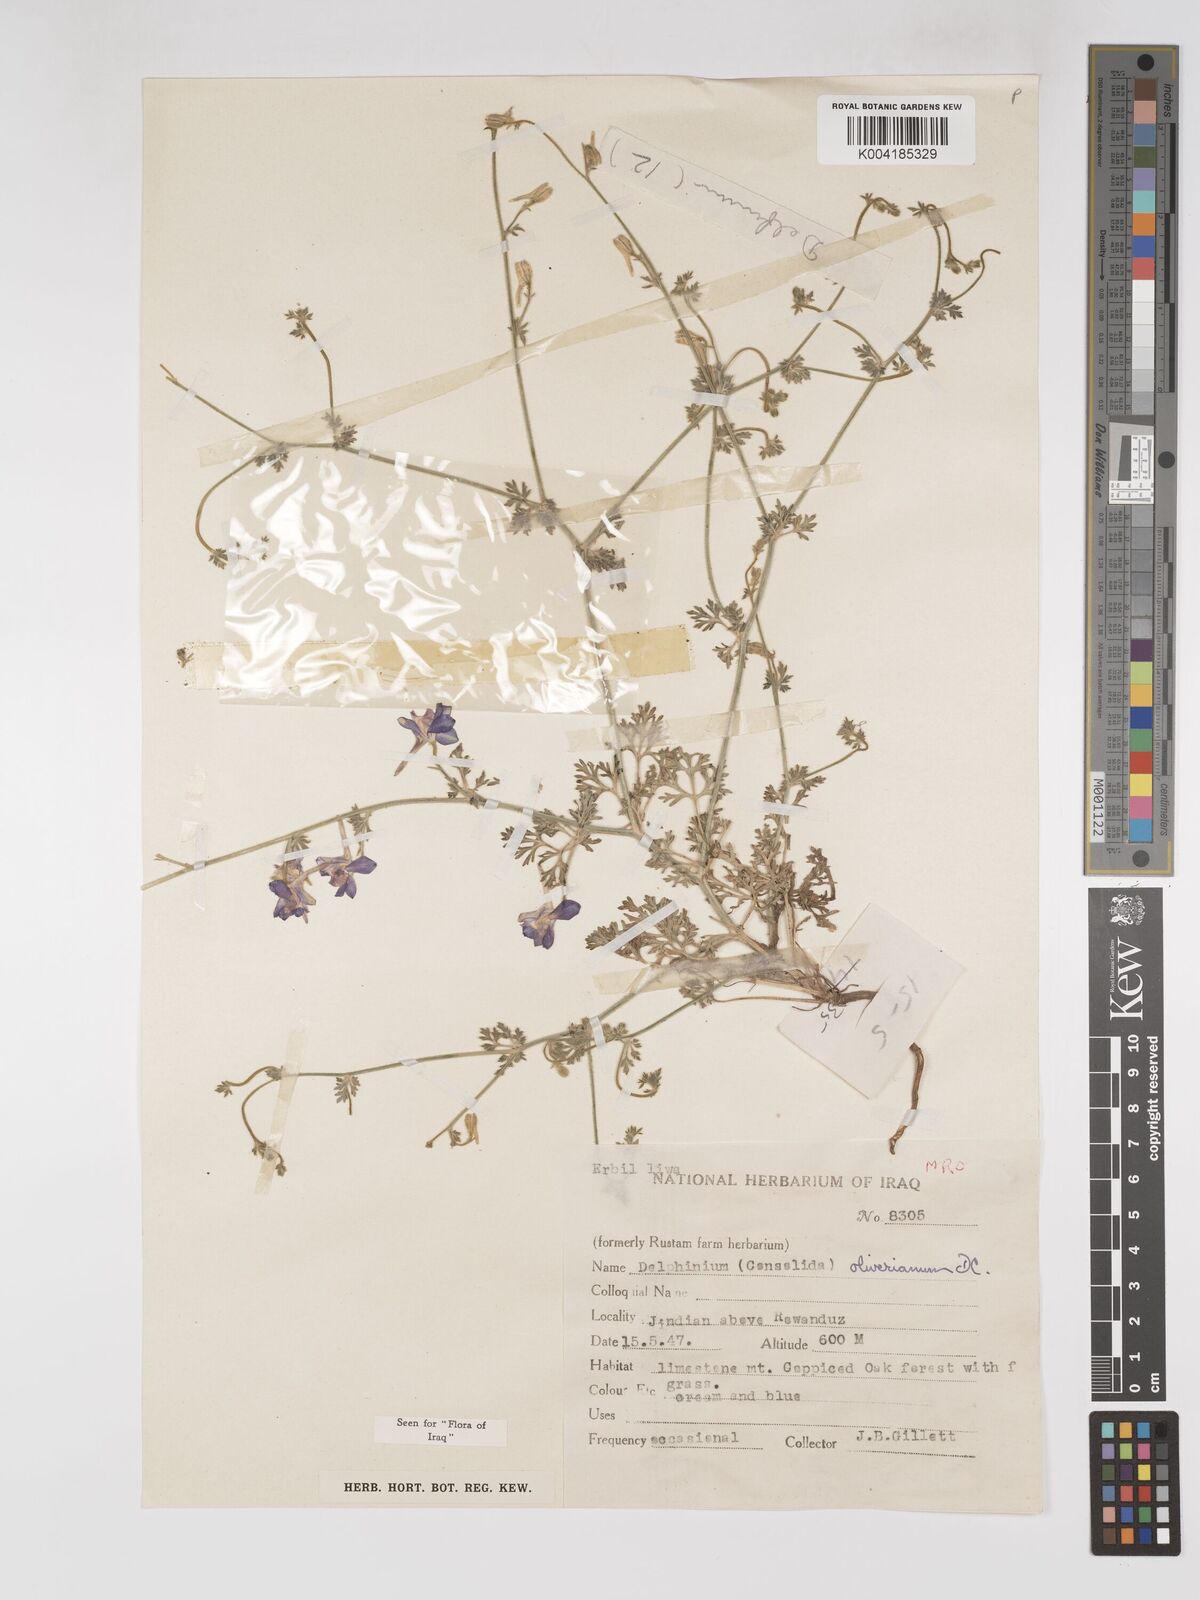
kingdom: Plantae
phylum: Tracheophyta
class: Magnoliopsida
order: Ranunculales
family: Ranunculaceae
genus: Delphinium
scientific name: Delphinium oliverianum
